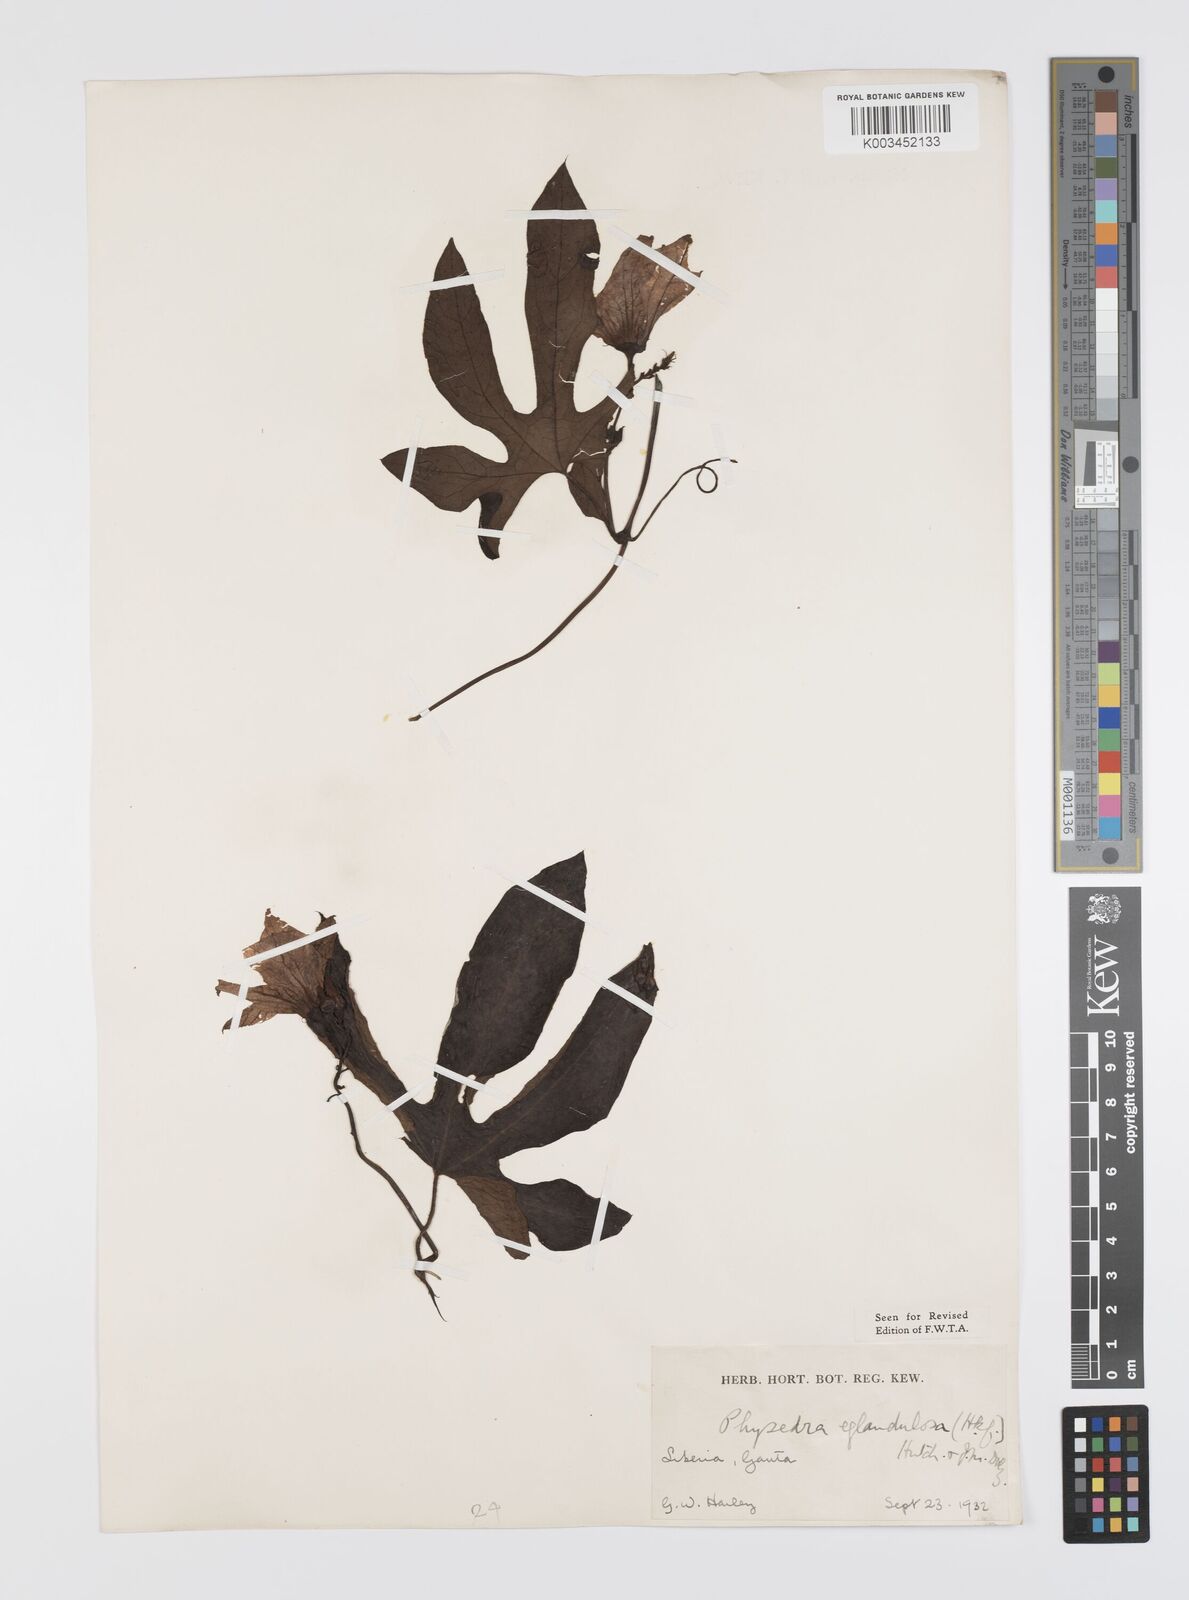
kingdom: Plantae
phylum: Tracheophyta
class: Magnoliopsida
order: Cucurbitales
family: Cucurbitaceae
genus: Ruthalicia
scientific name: Ruthalicia eglandulosa
